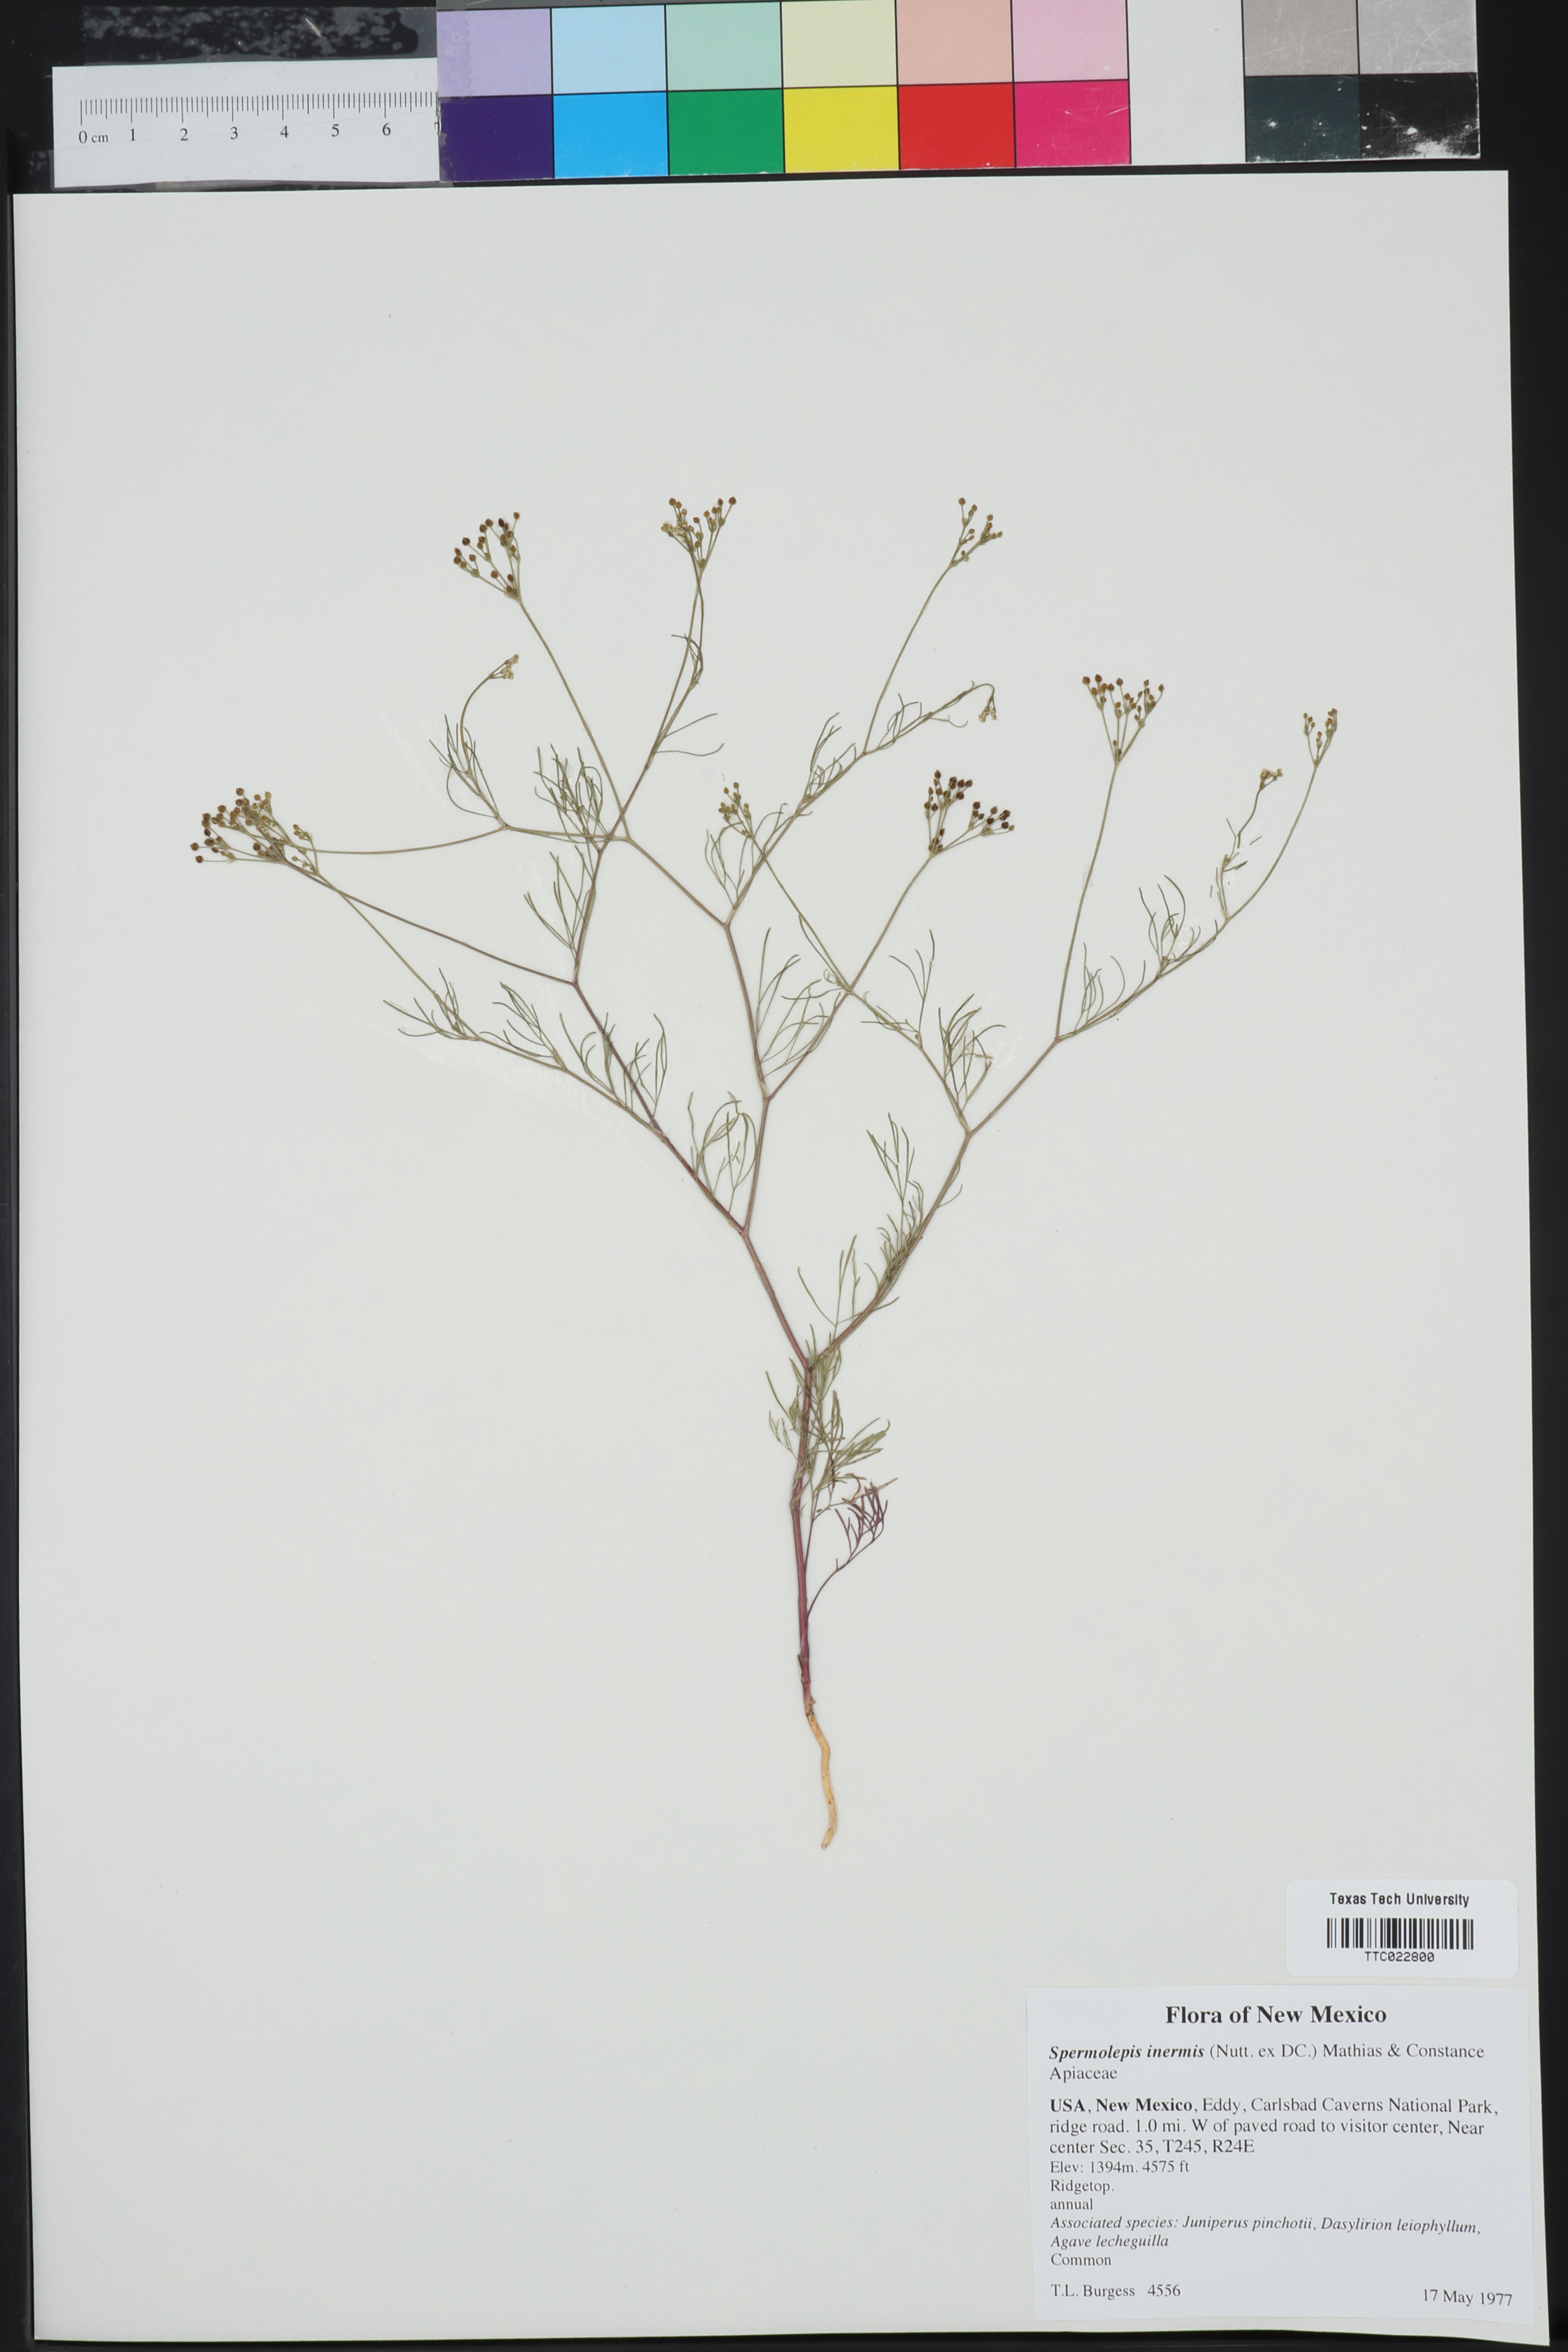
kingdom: Plantae
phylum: Tracheophyta
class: Magnoliopsida
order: Apiales
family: Apiaceae
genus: Spermolepis
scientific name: Spermolepis inermis
